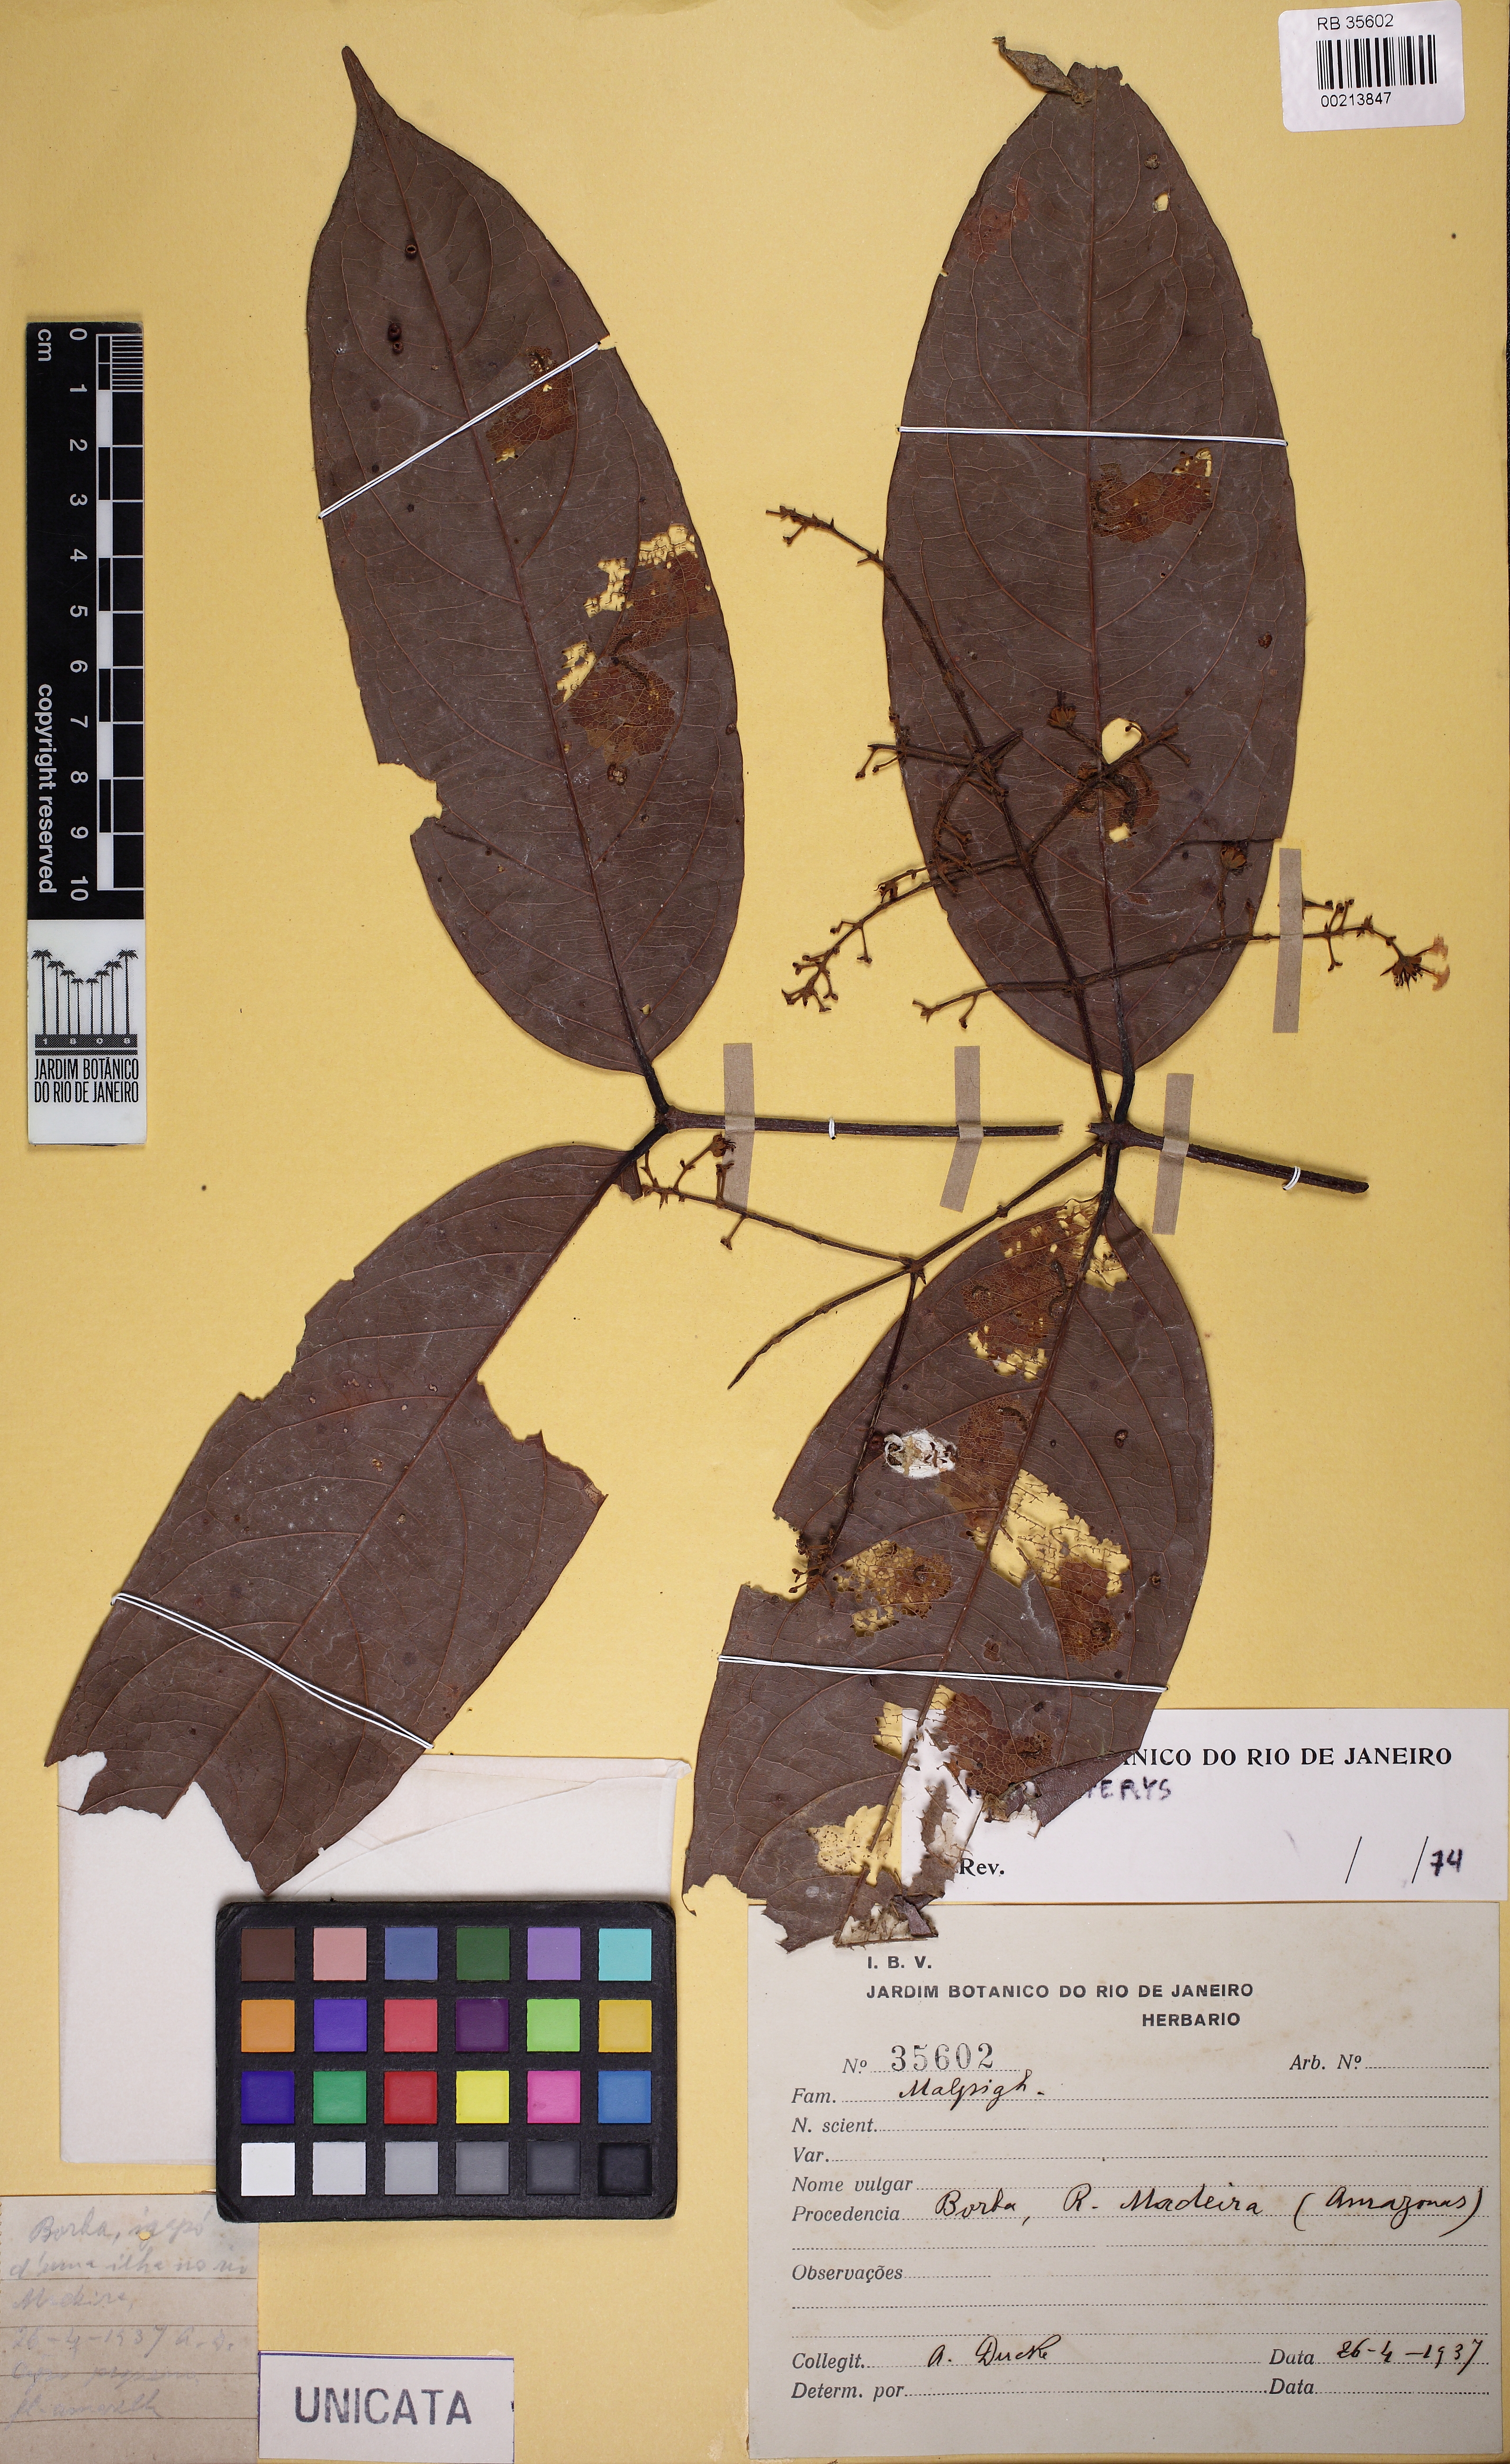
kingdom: Plantae
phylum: Tracheophyta
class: Magnoliopsida
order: Malpighiales
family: Malpighiaceae
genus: Heteropterys
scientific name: Heteropterys
